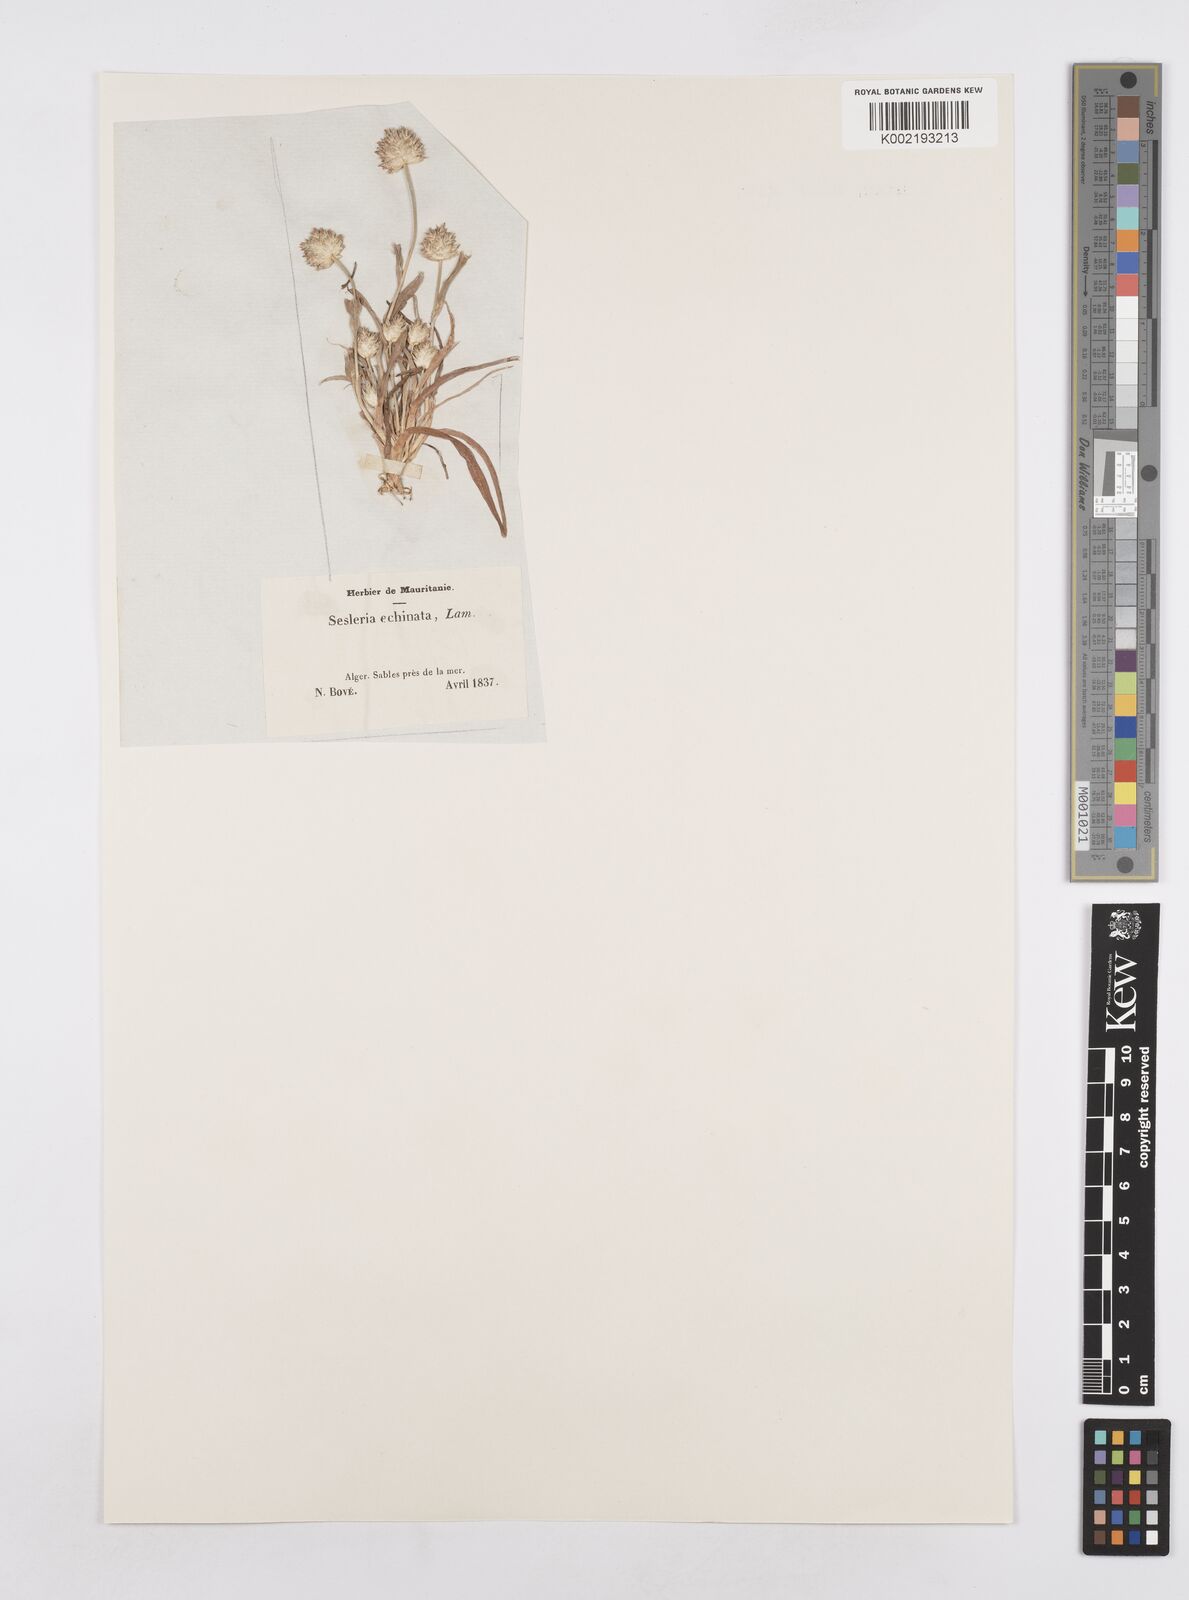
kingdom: Plantae
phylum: Tracheophyta
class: Liliopsida
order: Poales
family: Poaceae
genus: Ammochloa
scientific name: Ammochloa pungens
